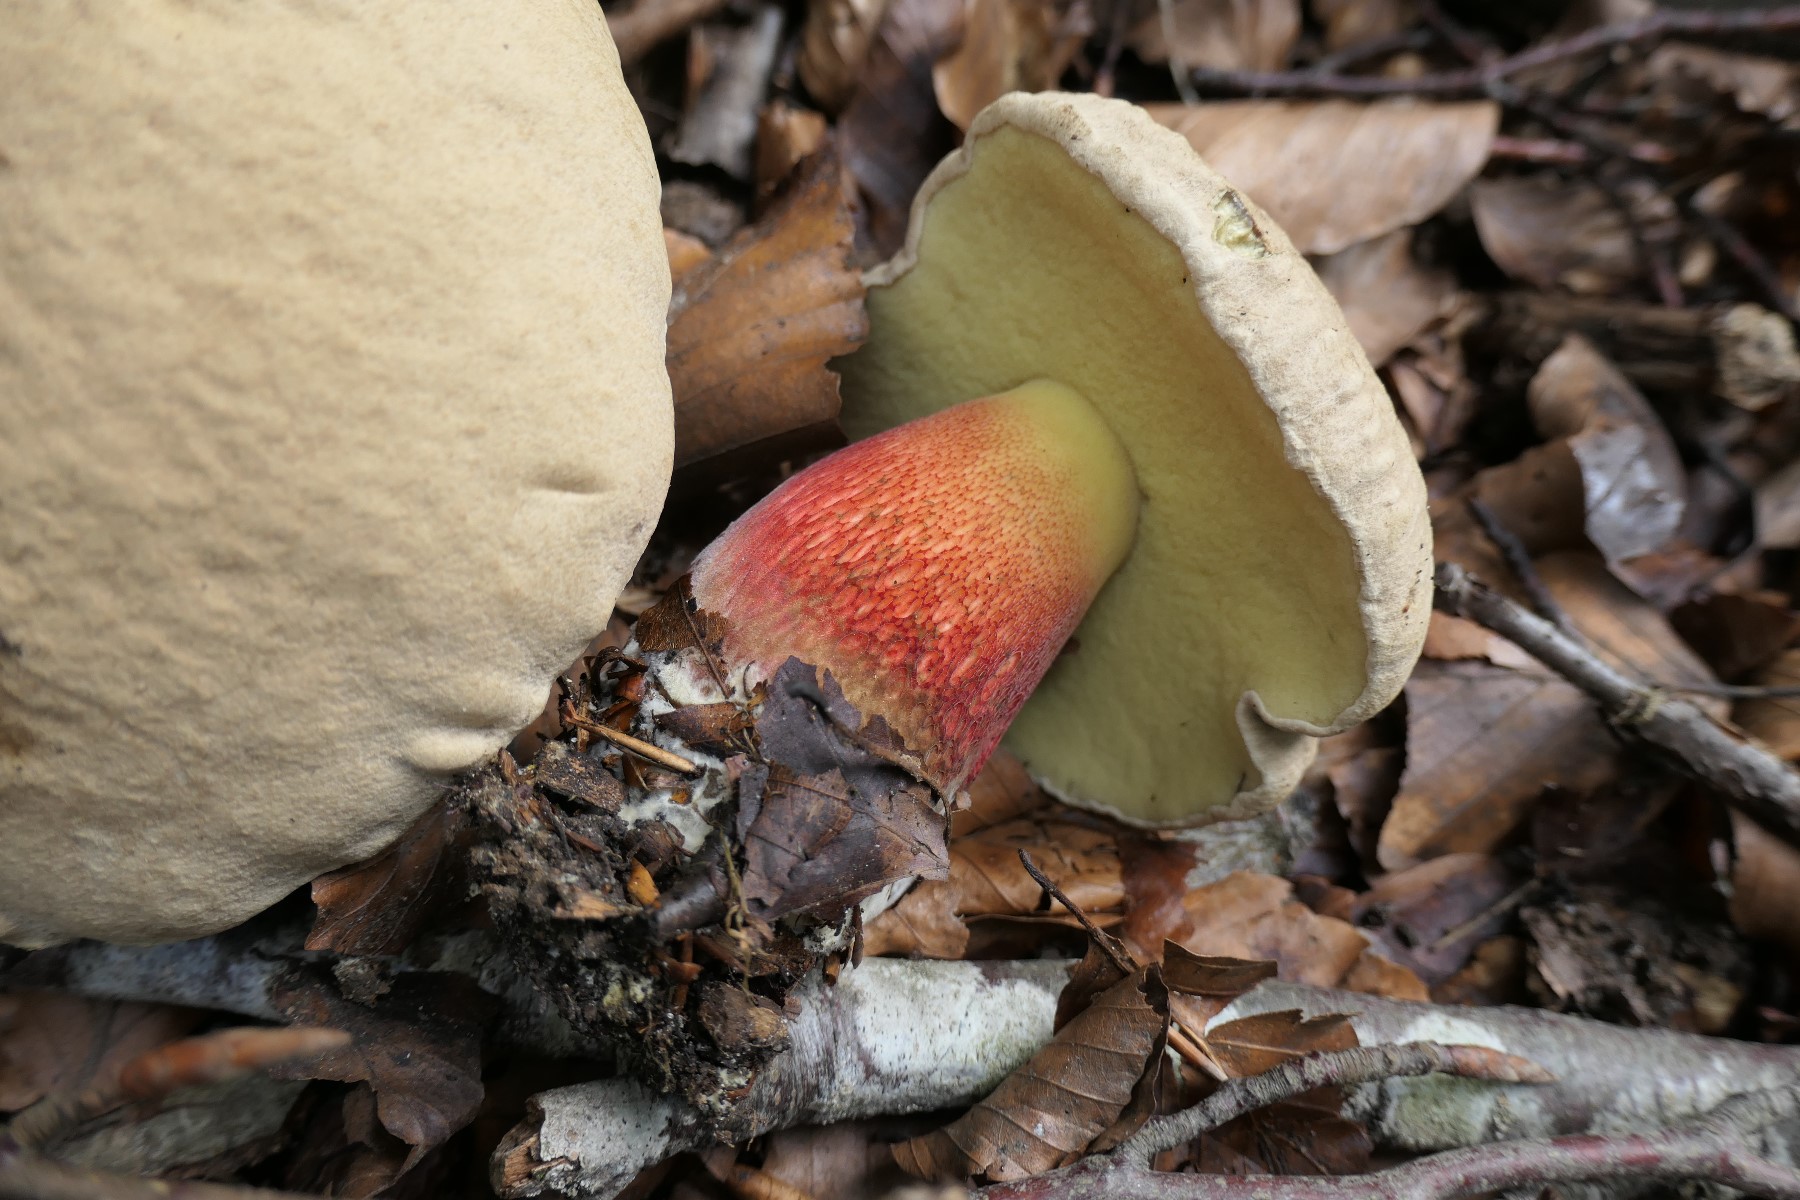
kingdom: Fungi
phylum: Basidiomycota
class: Agaricomycetes
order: Boletales
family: Boletaceae
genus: Caloboletus
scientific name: Caloboletus calopus
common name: skønfodet rørhat
